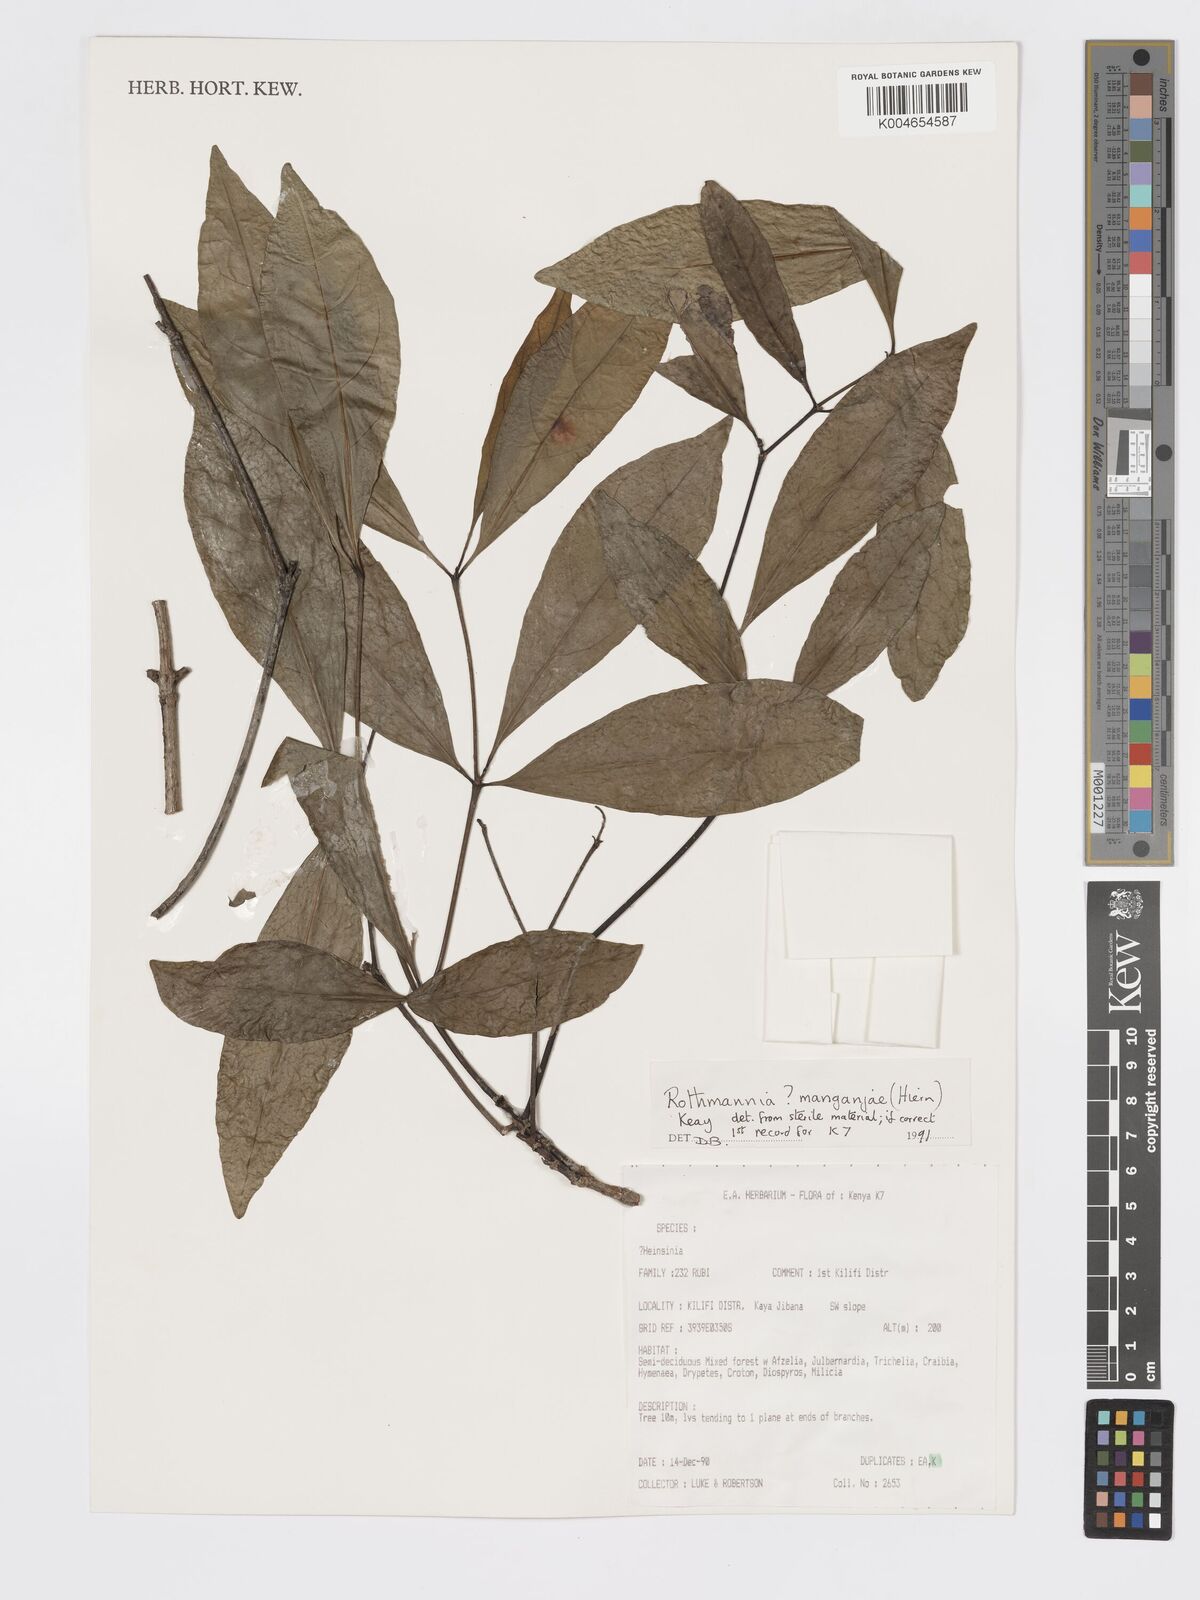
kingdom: Plantae
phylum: Tracheophyta
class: Magnoliopsida
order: Gentianales
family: Rubiaceae
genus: Rothmannia
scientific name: Rothmannia manganjae
